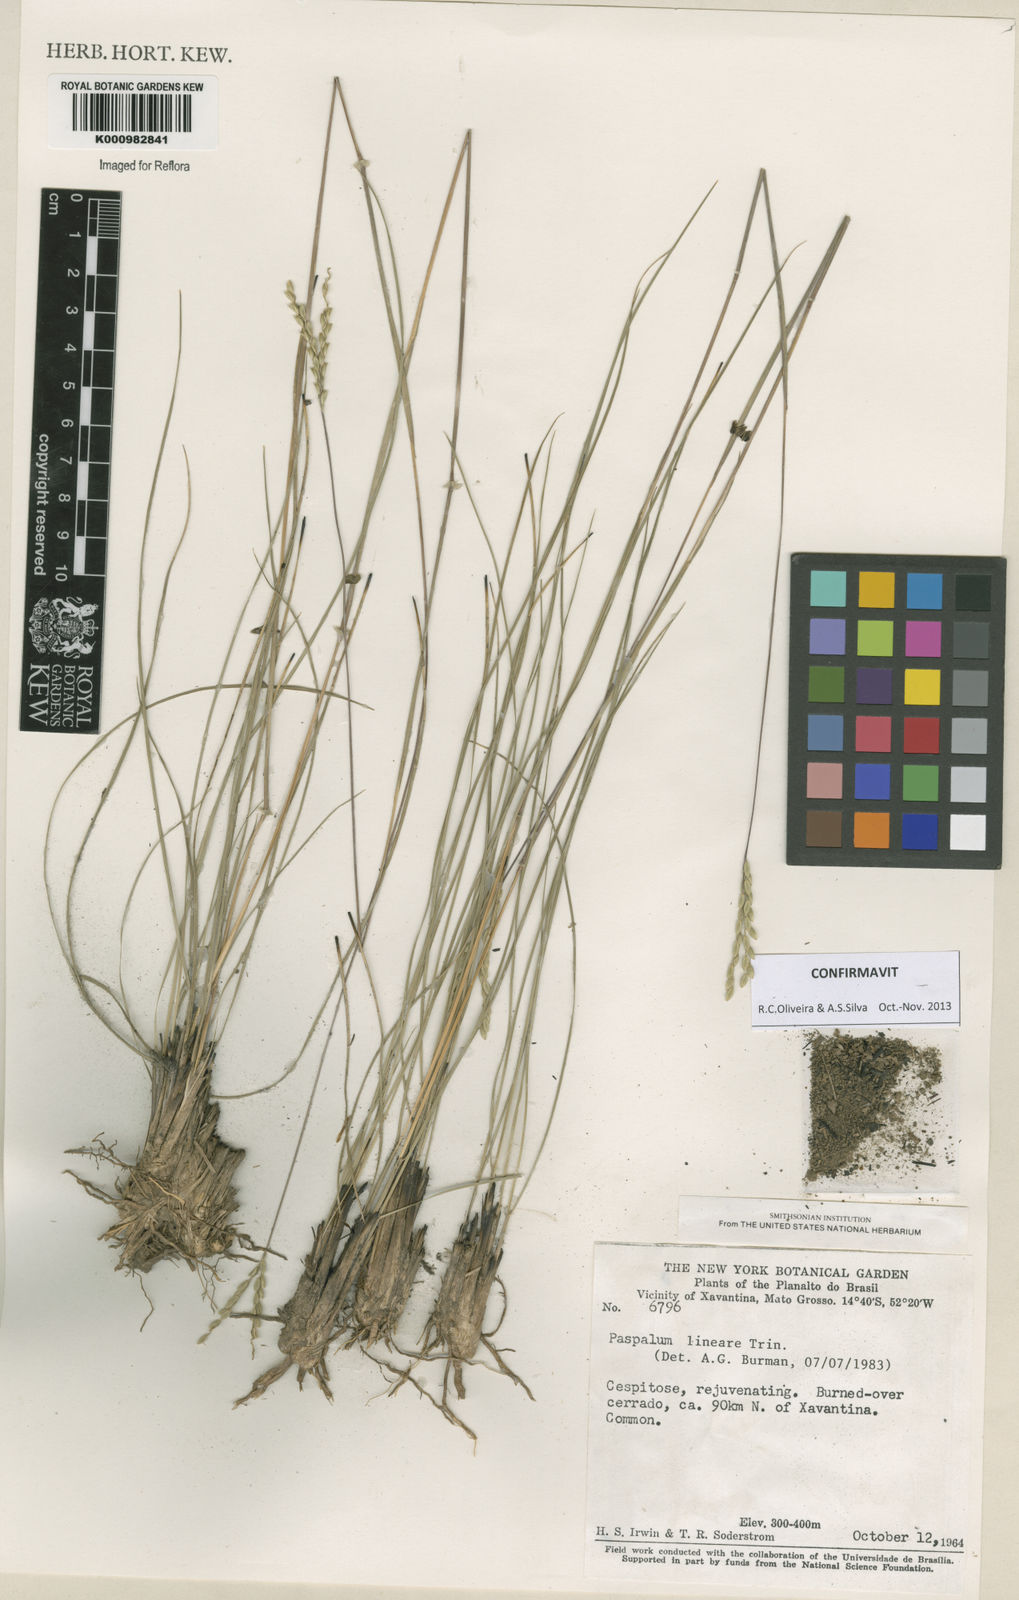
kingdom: Plantae
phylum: Tracheophyta
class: Liliopsida
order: Poales
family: Poaceae
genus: Paspalum
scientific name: Paspalum lineare
